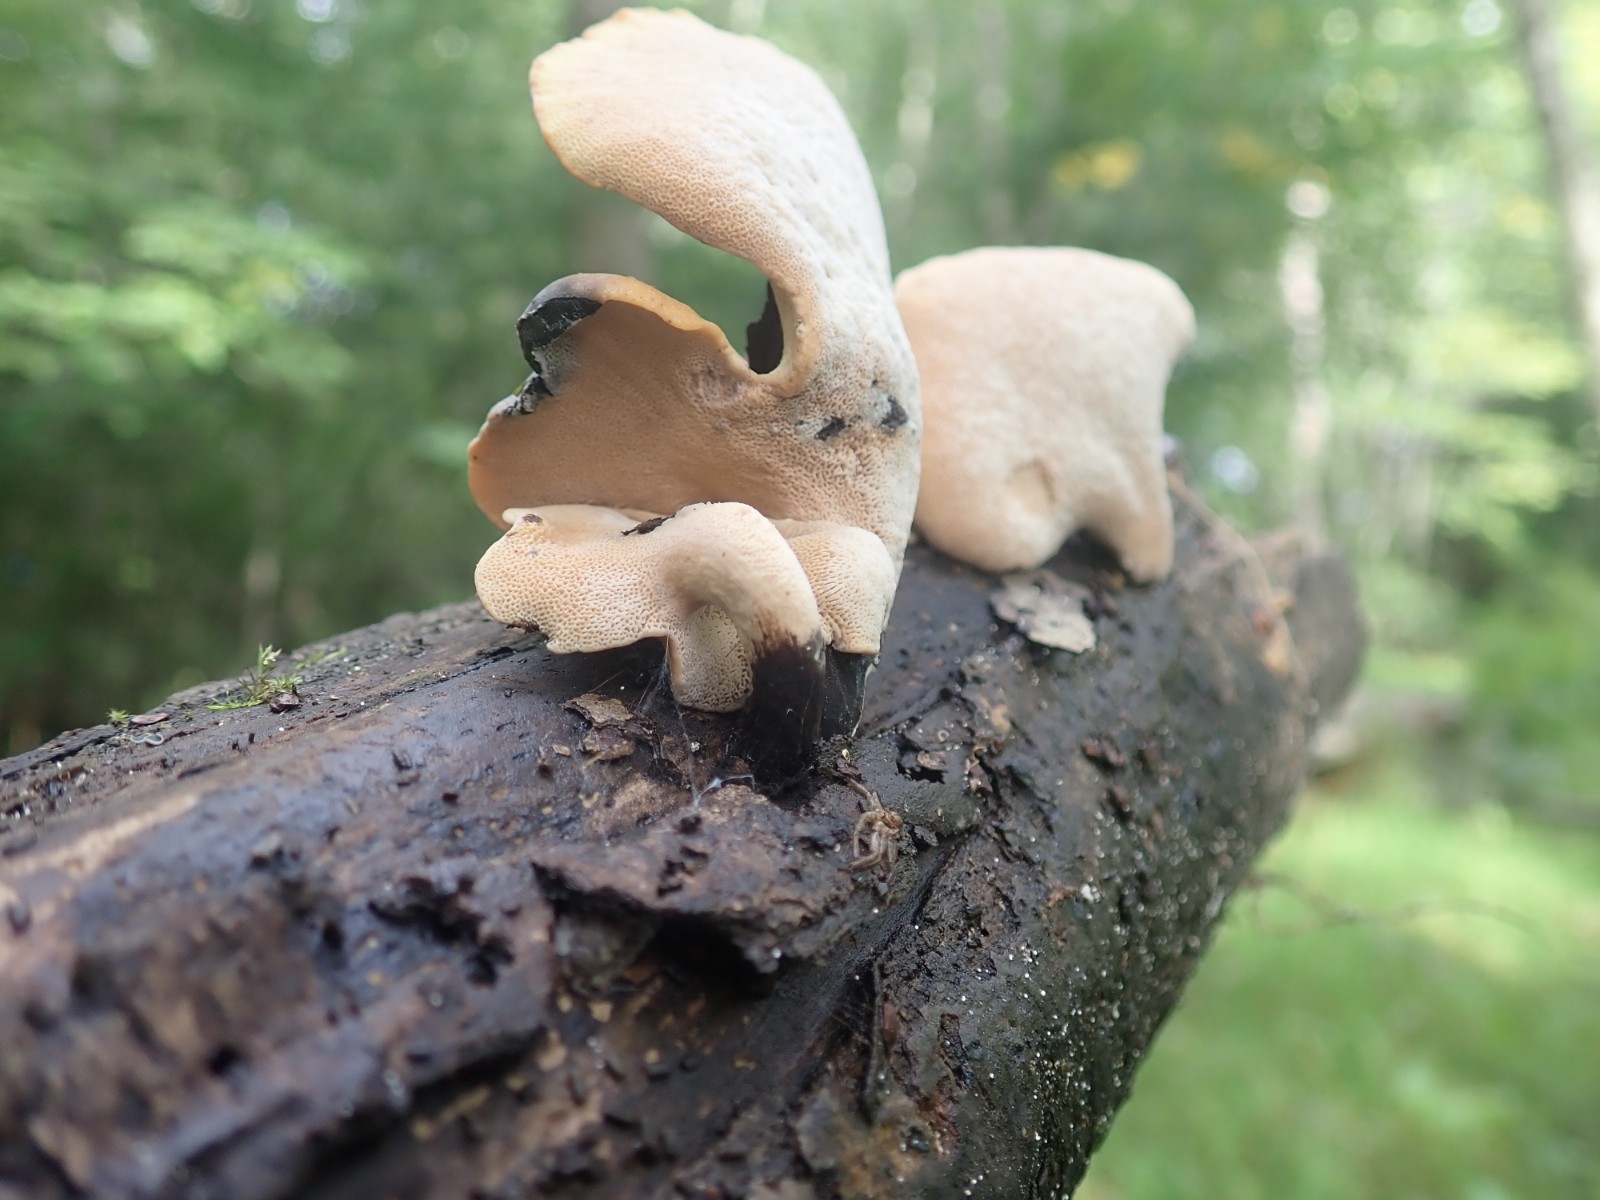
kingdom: Fungi
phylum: Basidiomycota
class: Agaricomycetes
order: Polyporales
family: Polyporaceae
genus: Cerioporus
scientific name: Cerioporus varius
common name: foranderlig stilkporesvamp
